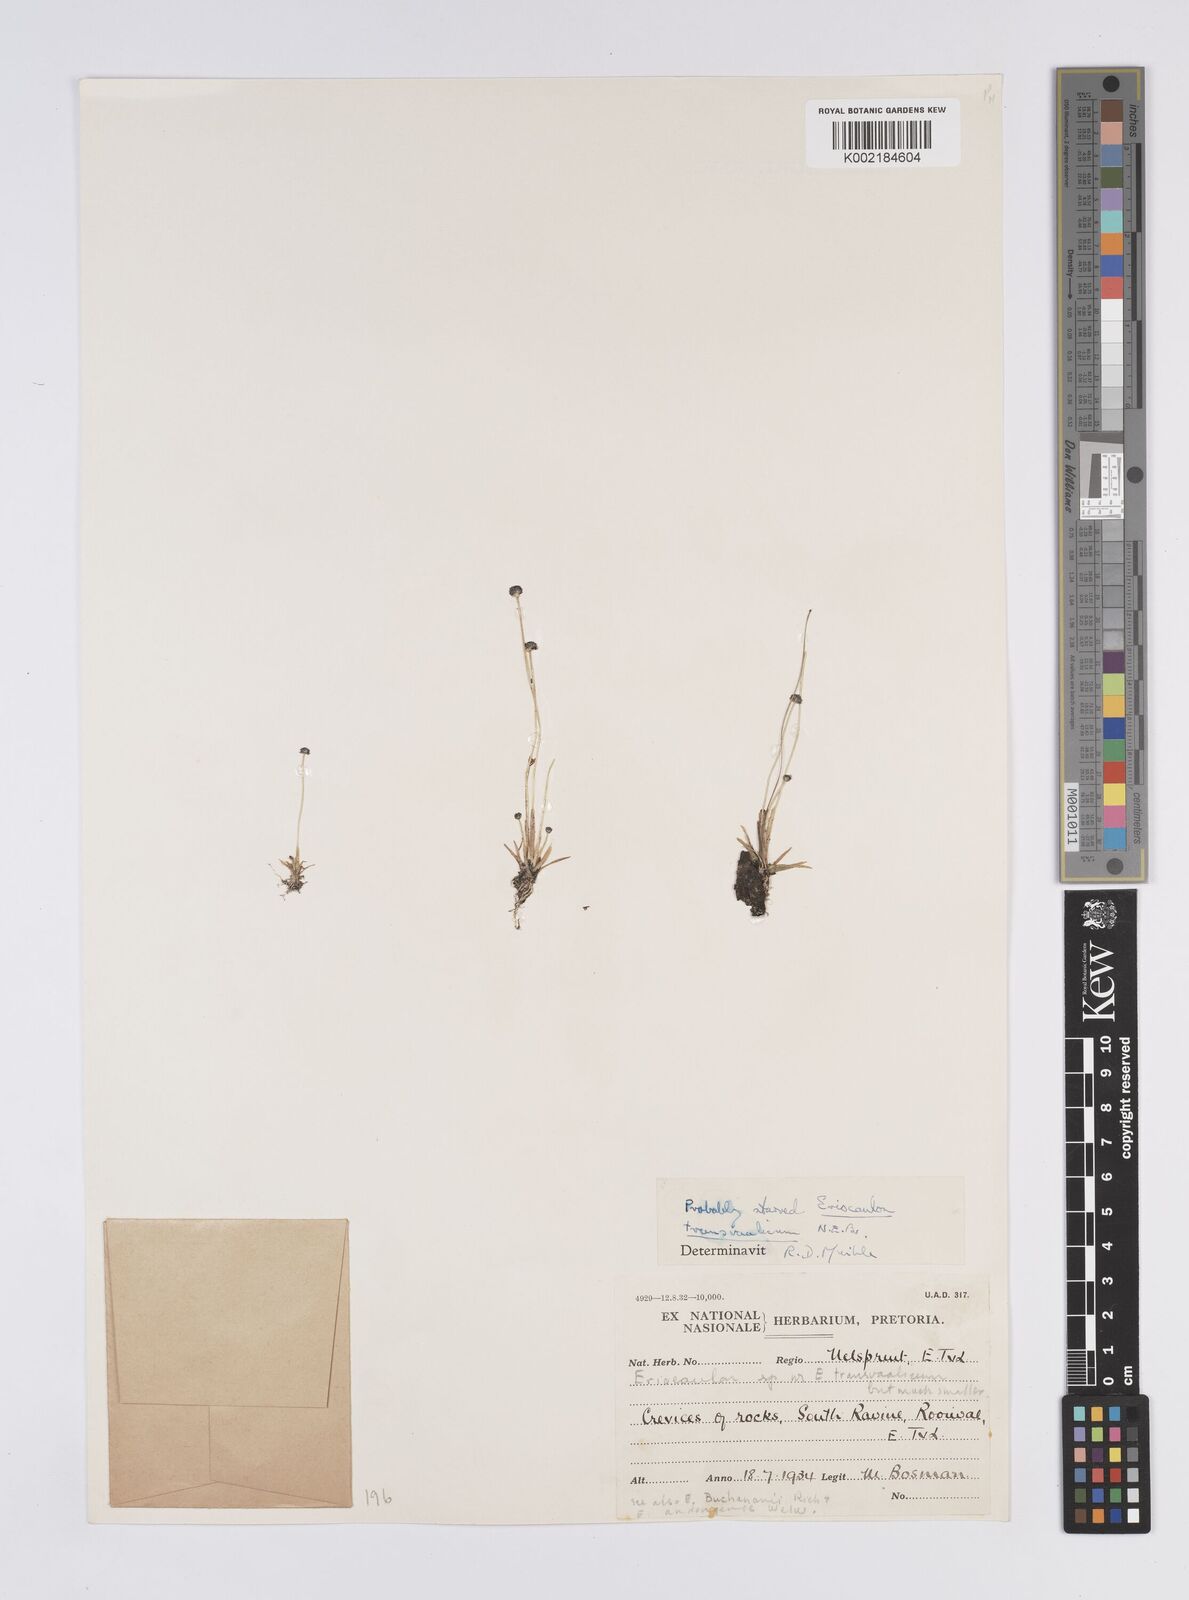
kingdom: Plantae
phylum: Tracheophyta
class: Liliopsida
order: Poales
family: Eriocaulaceae
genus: Eriocaulon
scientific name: Eriocaulon
